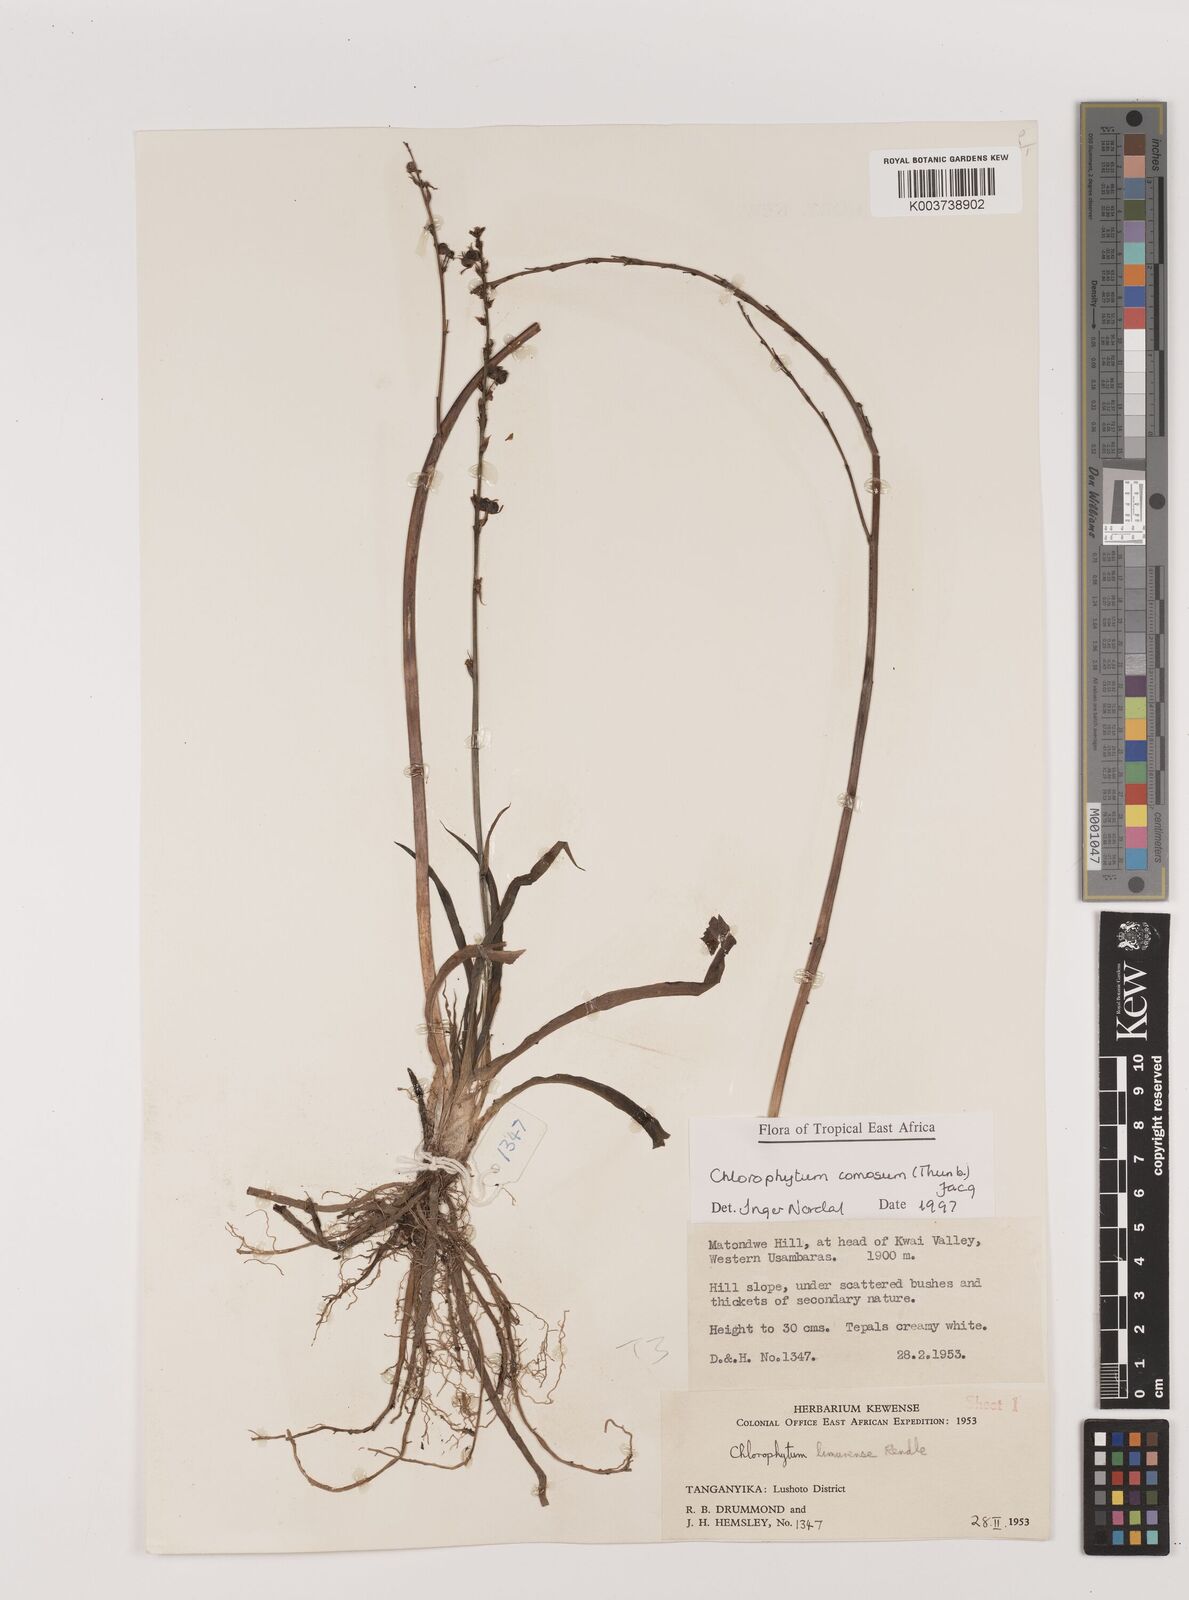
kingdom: Plantae
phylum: Tracheophyta
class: Liliopsida
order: Asparagales
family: Asparagaceae
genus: Chlorophytum
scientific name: Chlorophytum comosum
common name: Spider plant
